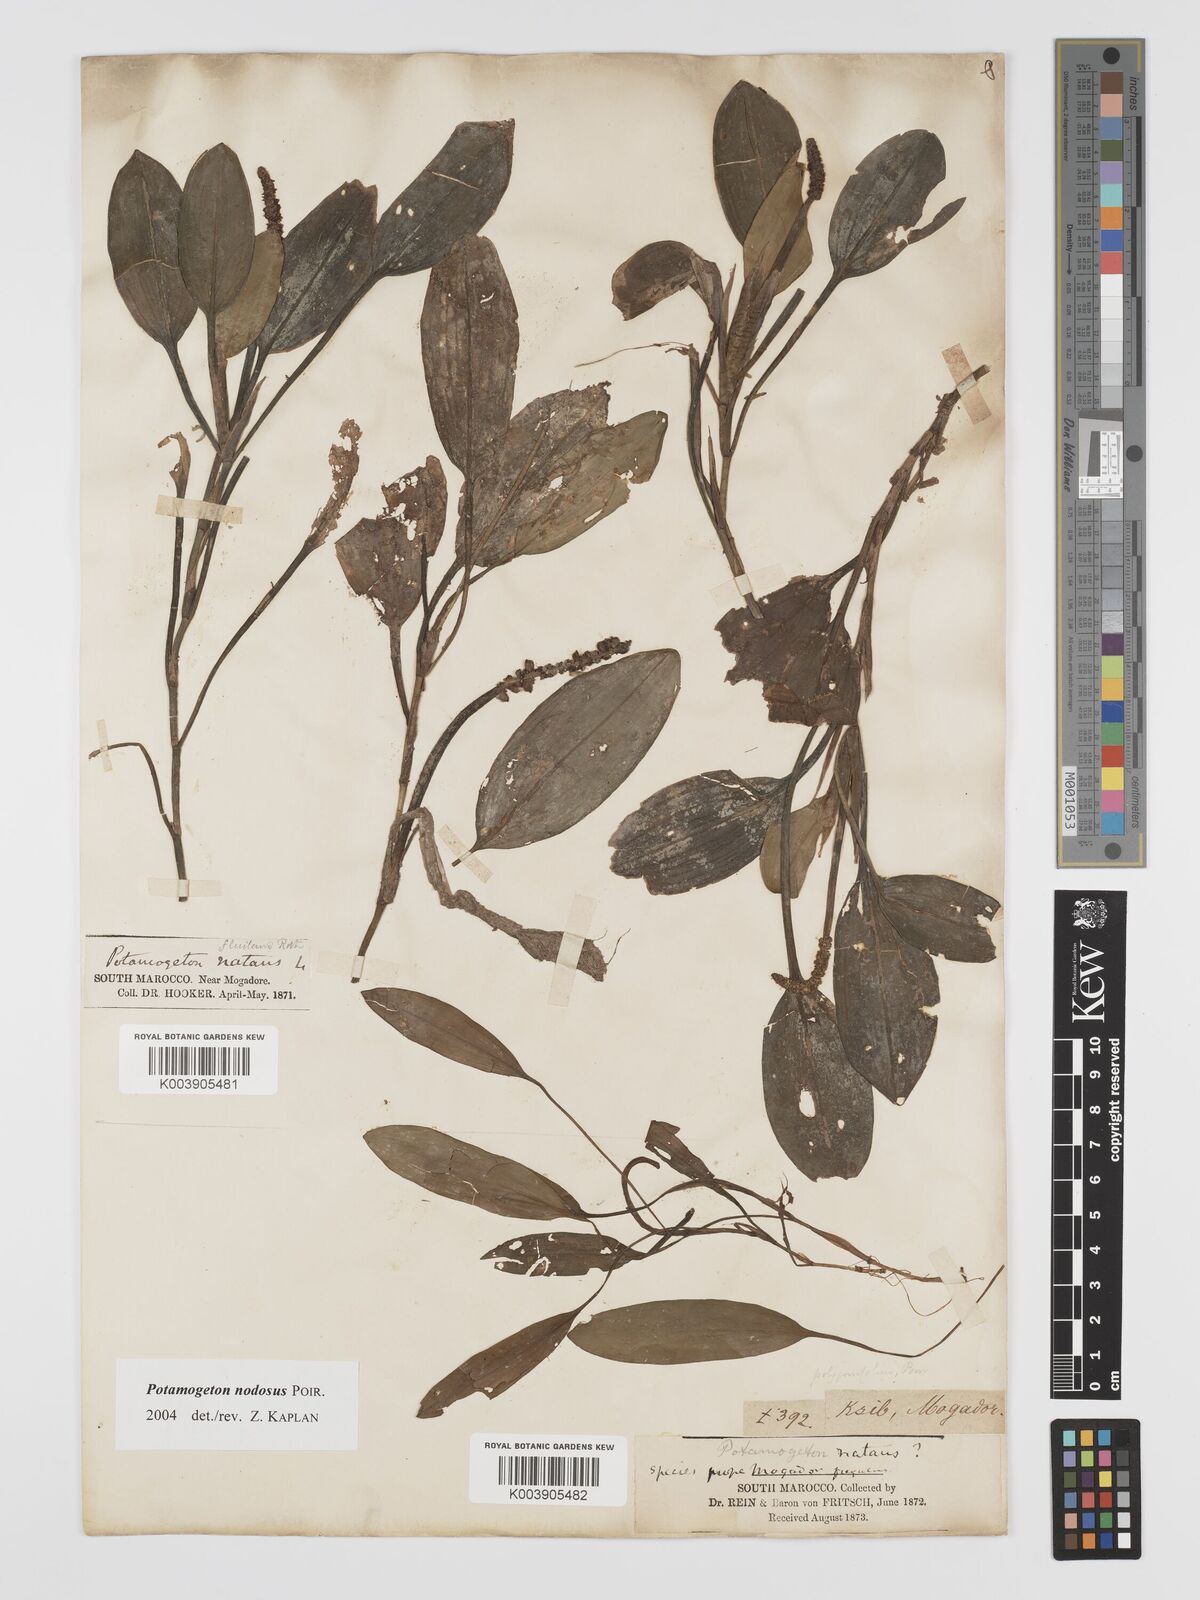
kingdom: Plantae
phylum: Tracheophyta
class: Liliopsida
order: Alismatales
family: Potamogetonaceae
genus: Potamogeton
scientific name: Potamogeton nodosus
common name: Loddon pondweed
